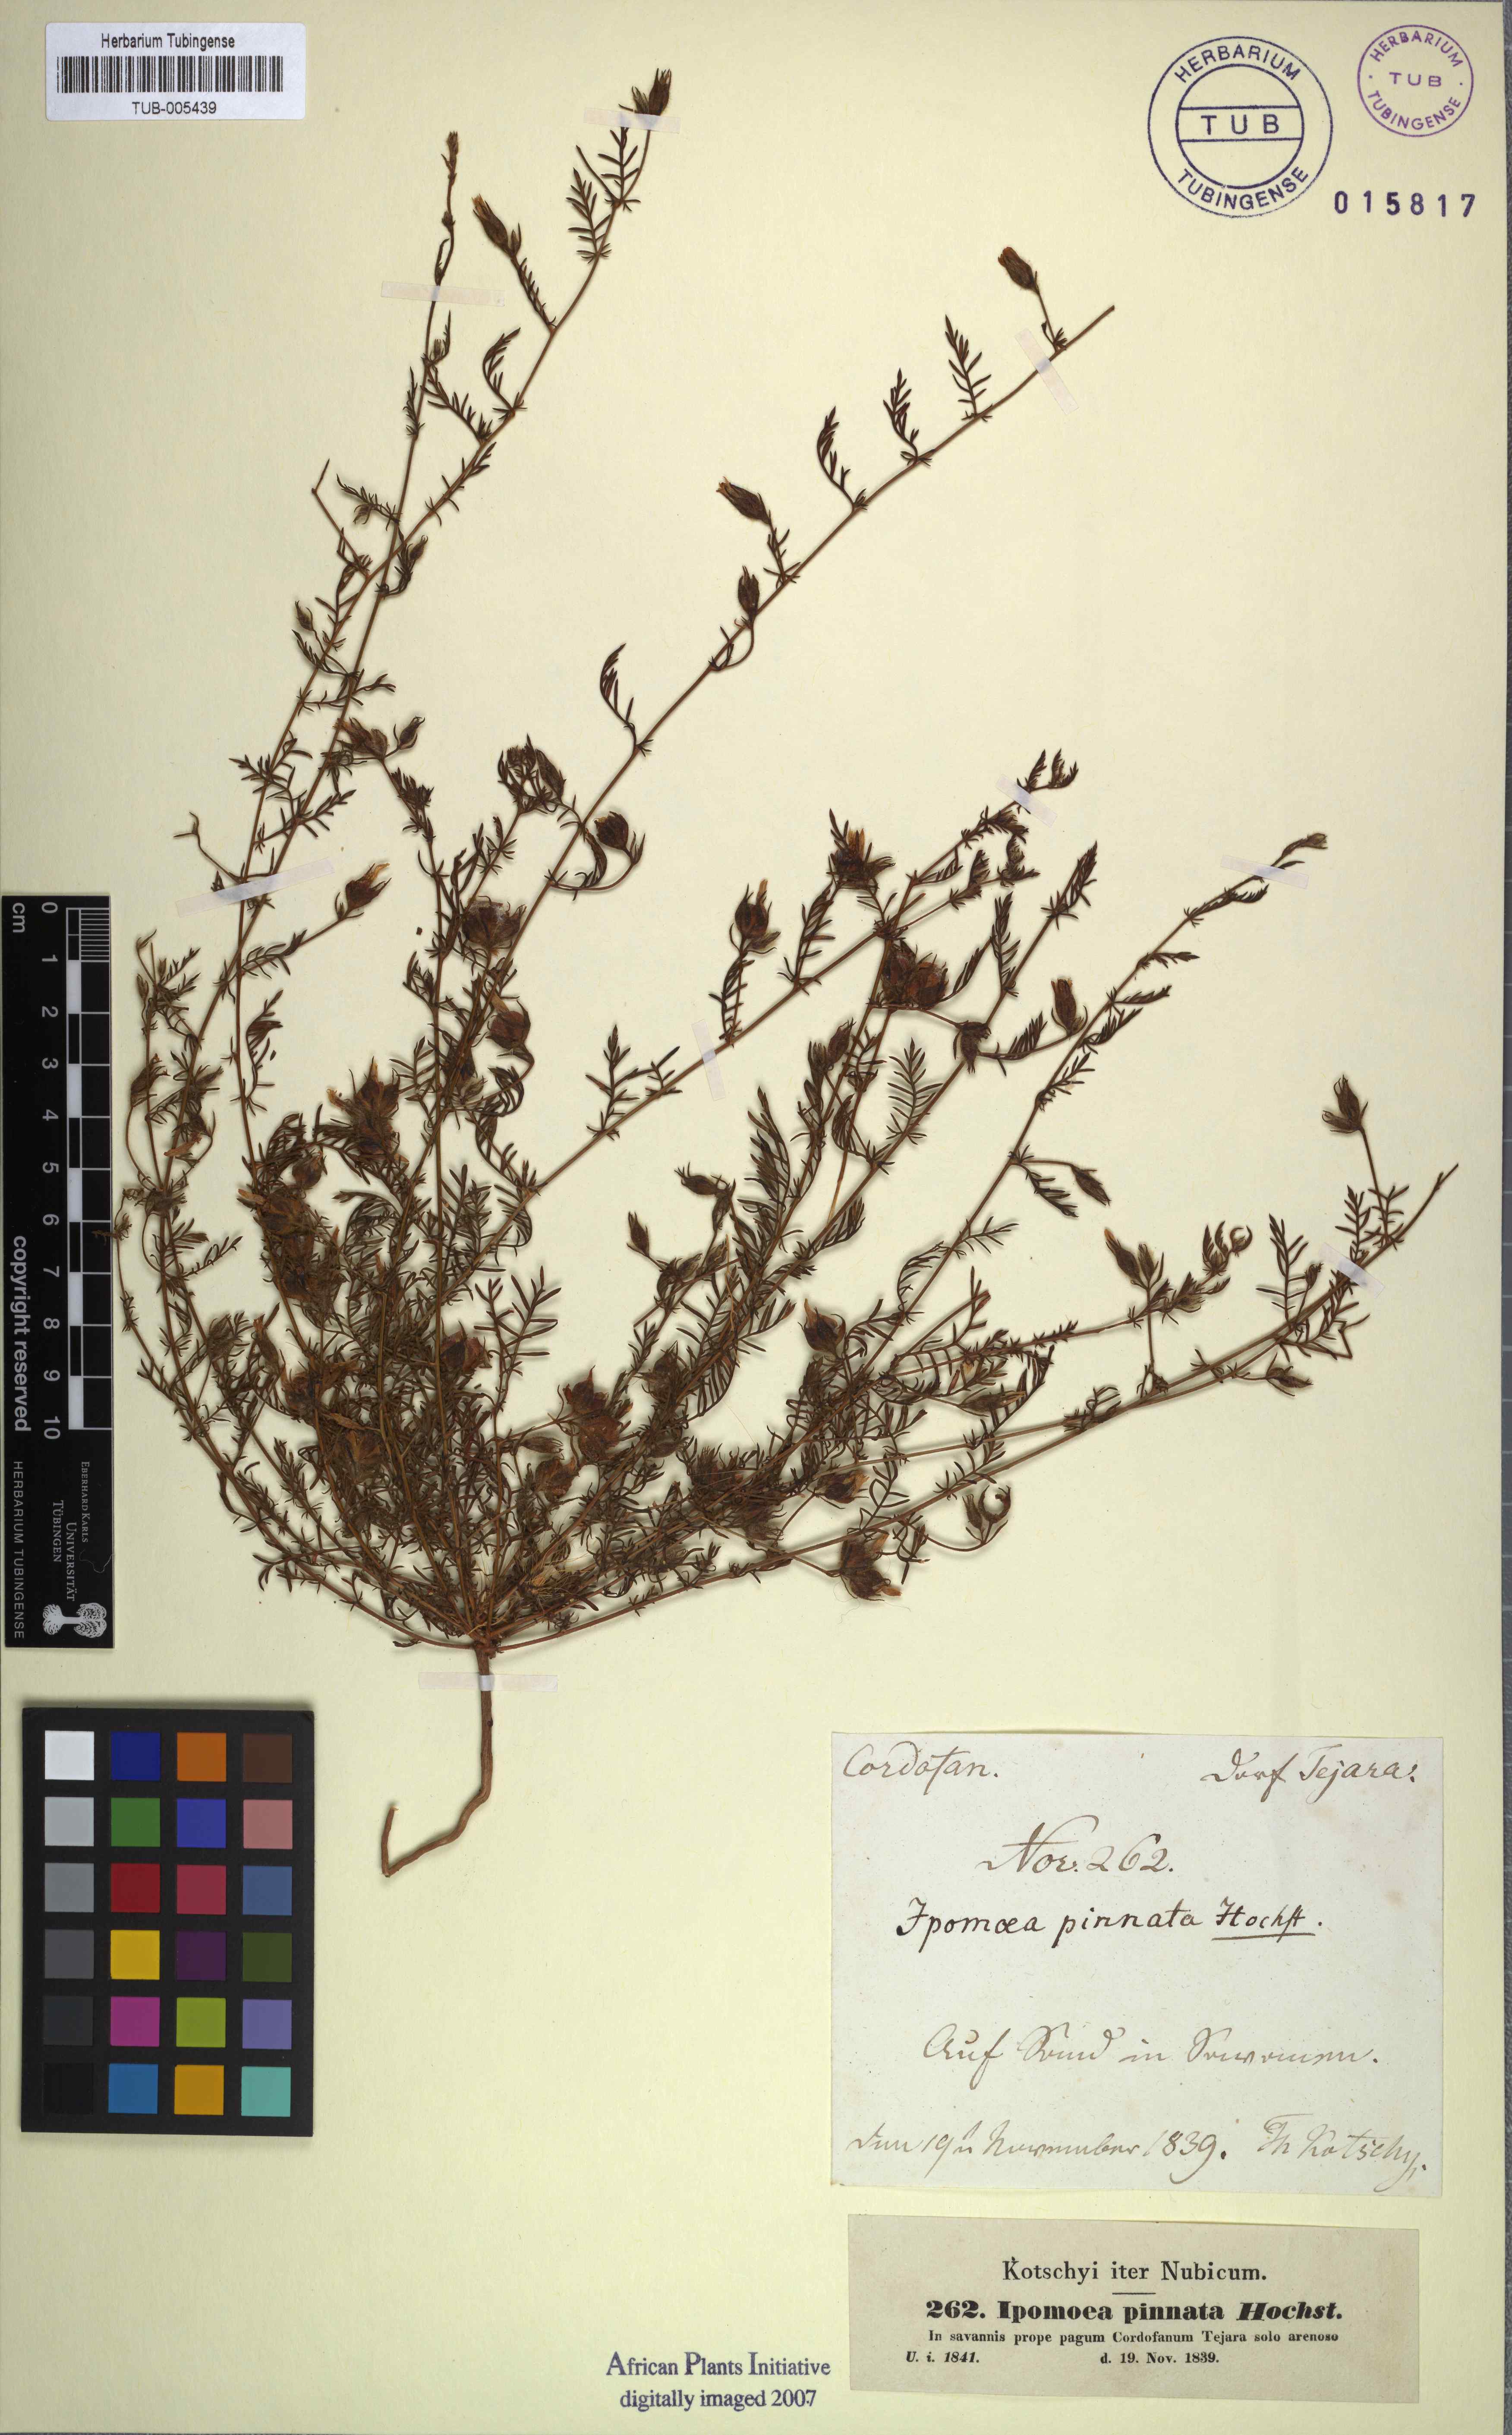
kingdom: Plantae
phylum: Tracheophyta
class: Magnoliopsida
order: Solanales
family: Convolvulaceae
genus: Xenostegia
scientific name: Xenostegia pinnata
